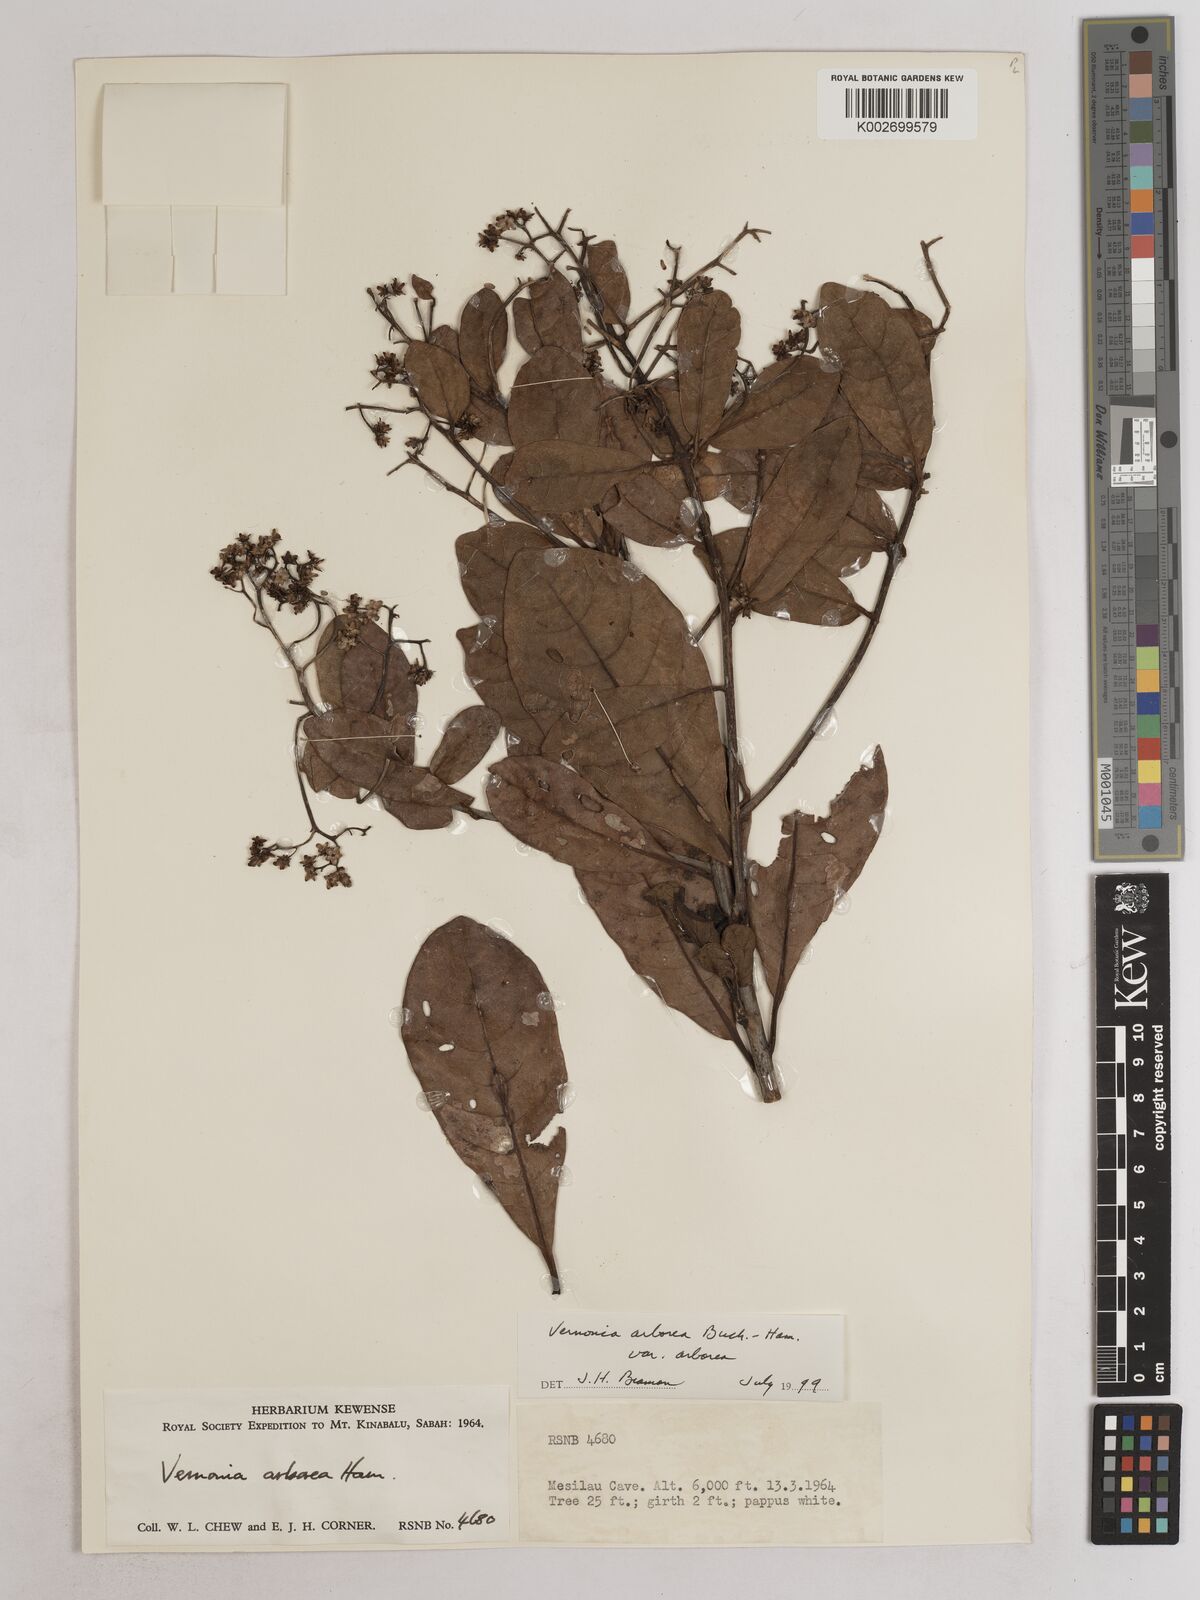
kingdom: Plantae
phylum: Tracheophyta
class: Magnoliopsida
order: Asterales
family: Asteraceae
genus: Strobocalyx
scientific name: Strobocalyx arborea
